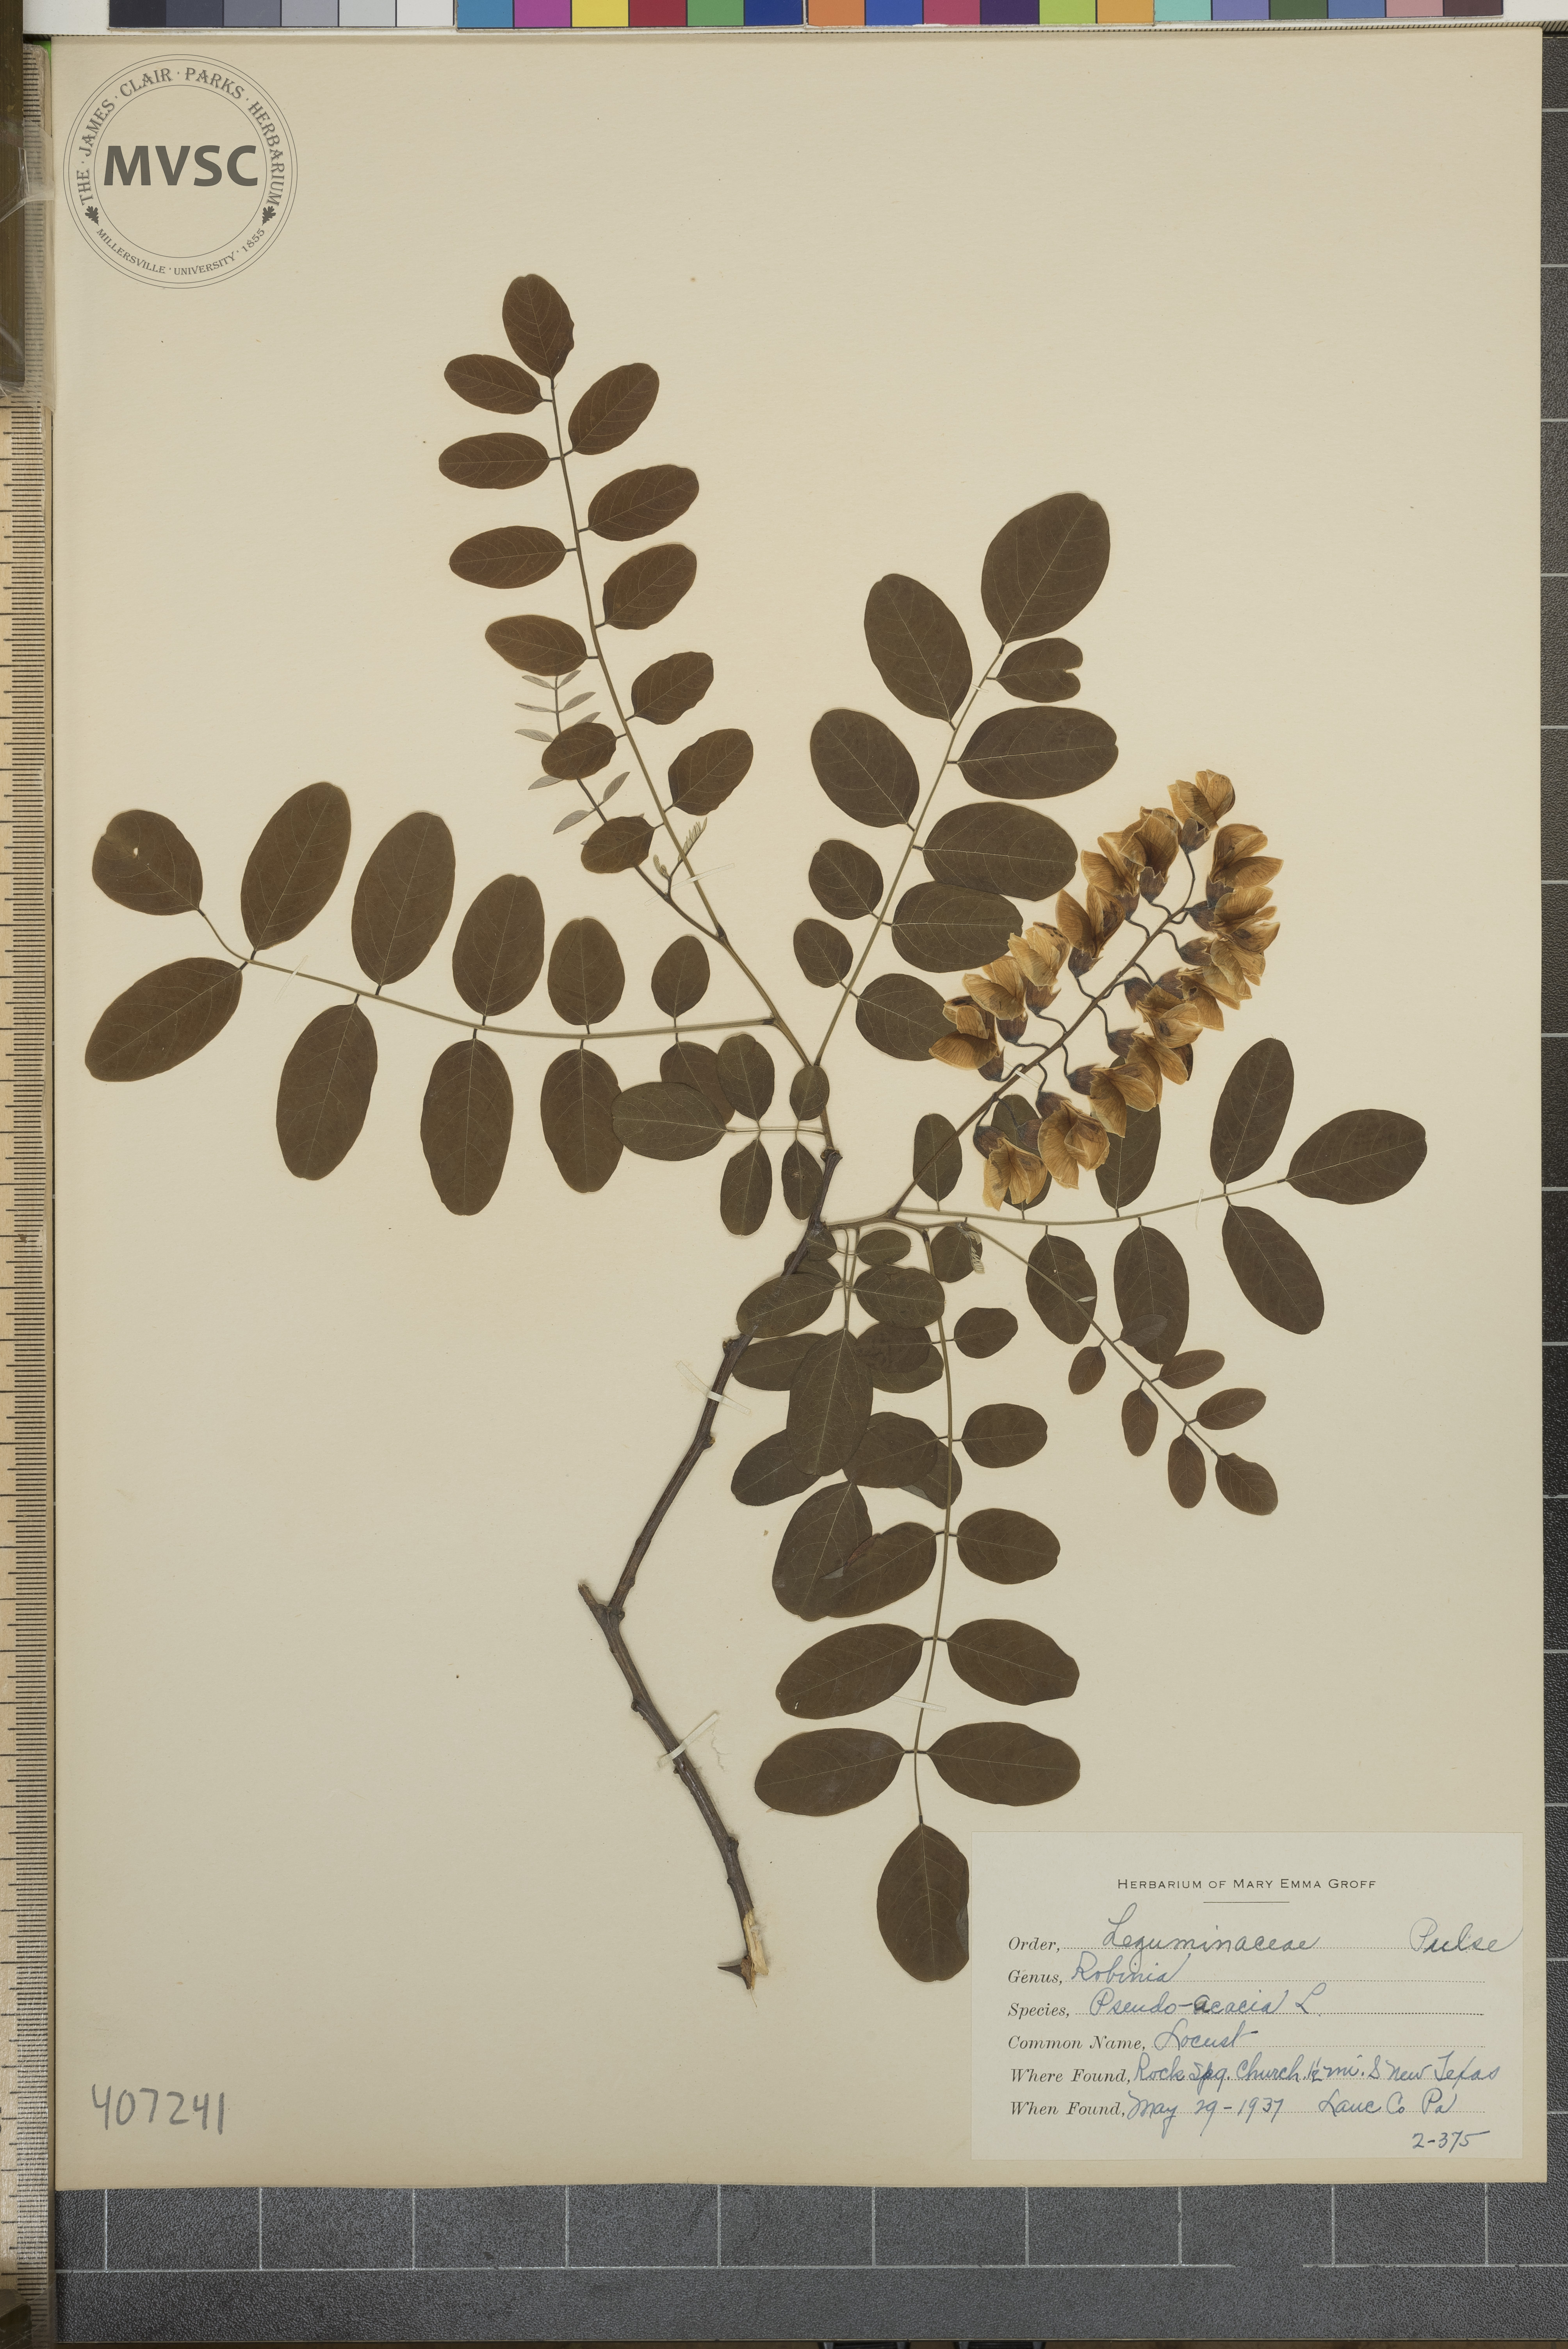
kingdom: Plantae
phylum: Tracheophyta
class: Magnoliopsida
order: Fabales
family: Fabaceae
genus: Robinia
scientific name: Robinia pseudoacacia
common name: locust
